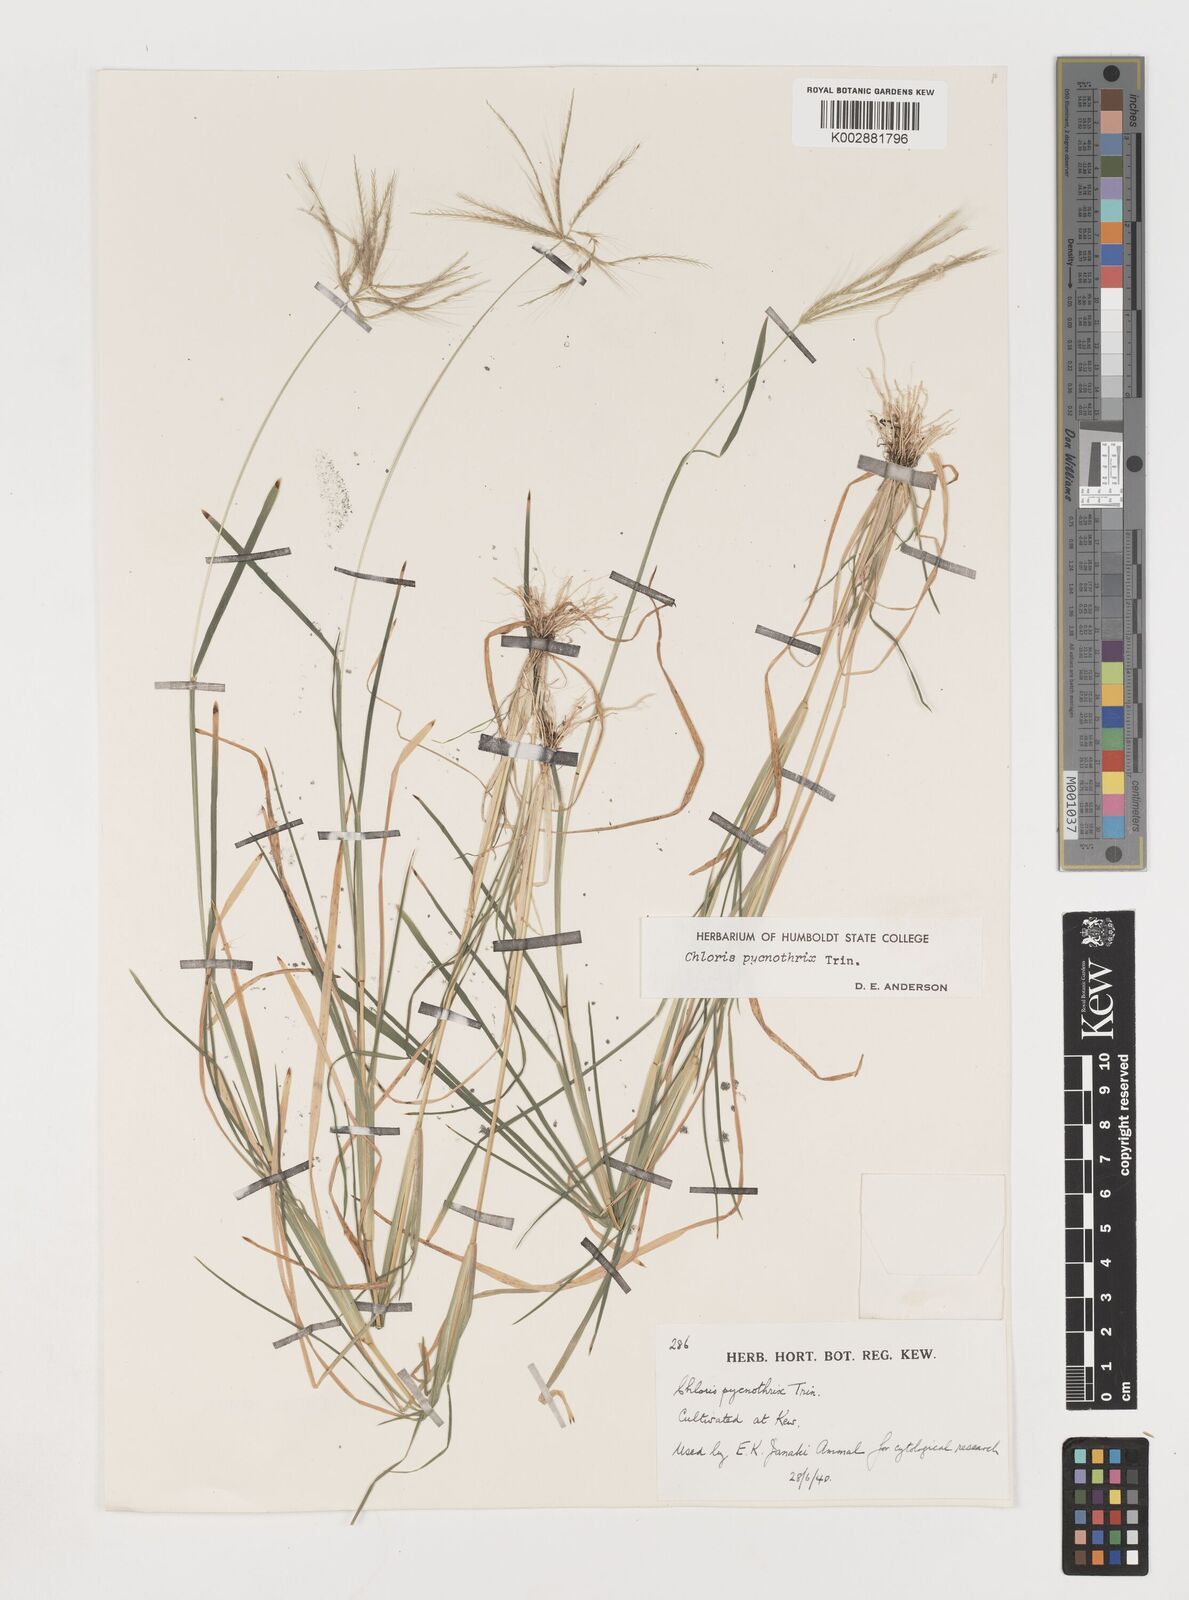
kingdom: Plantae
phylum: Tracheophyta
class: Liliopsida
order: Poales
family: Poaceae
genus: Chloris
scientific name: Chloris pycnothrix
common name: Spiderweb chloris
